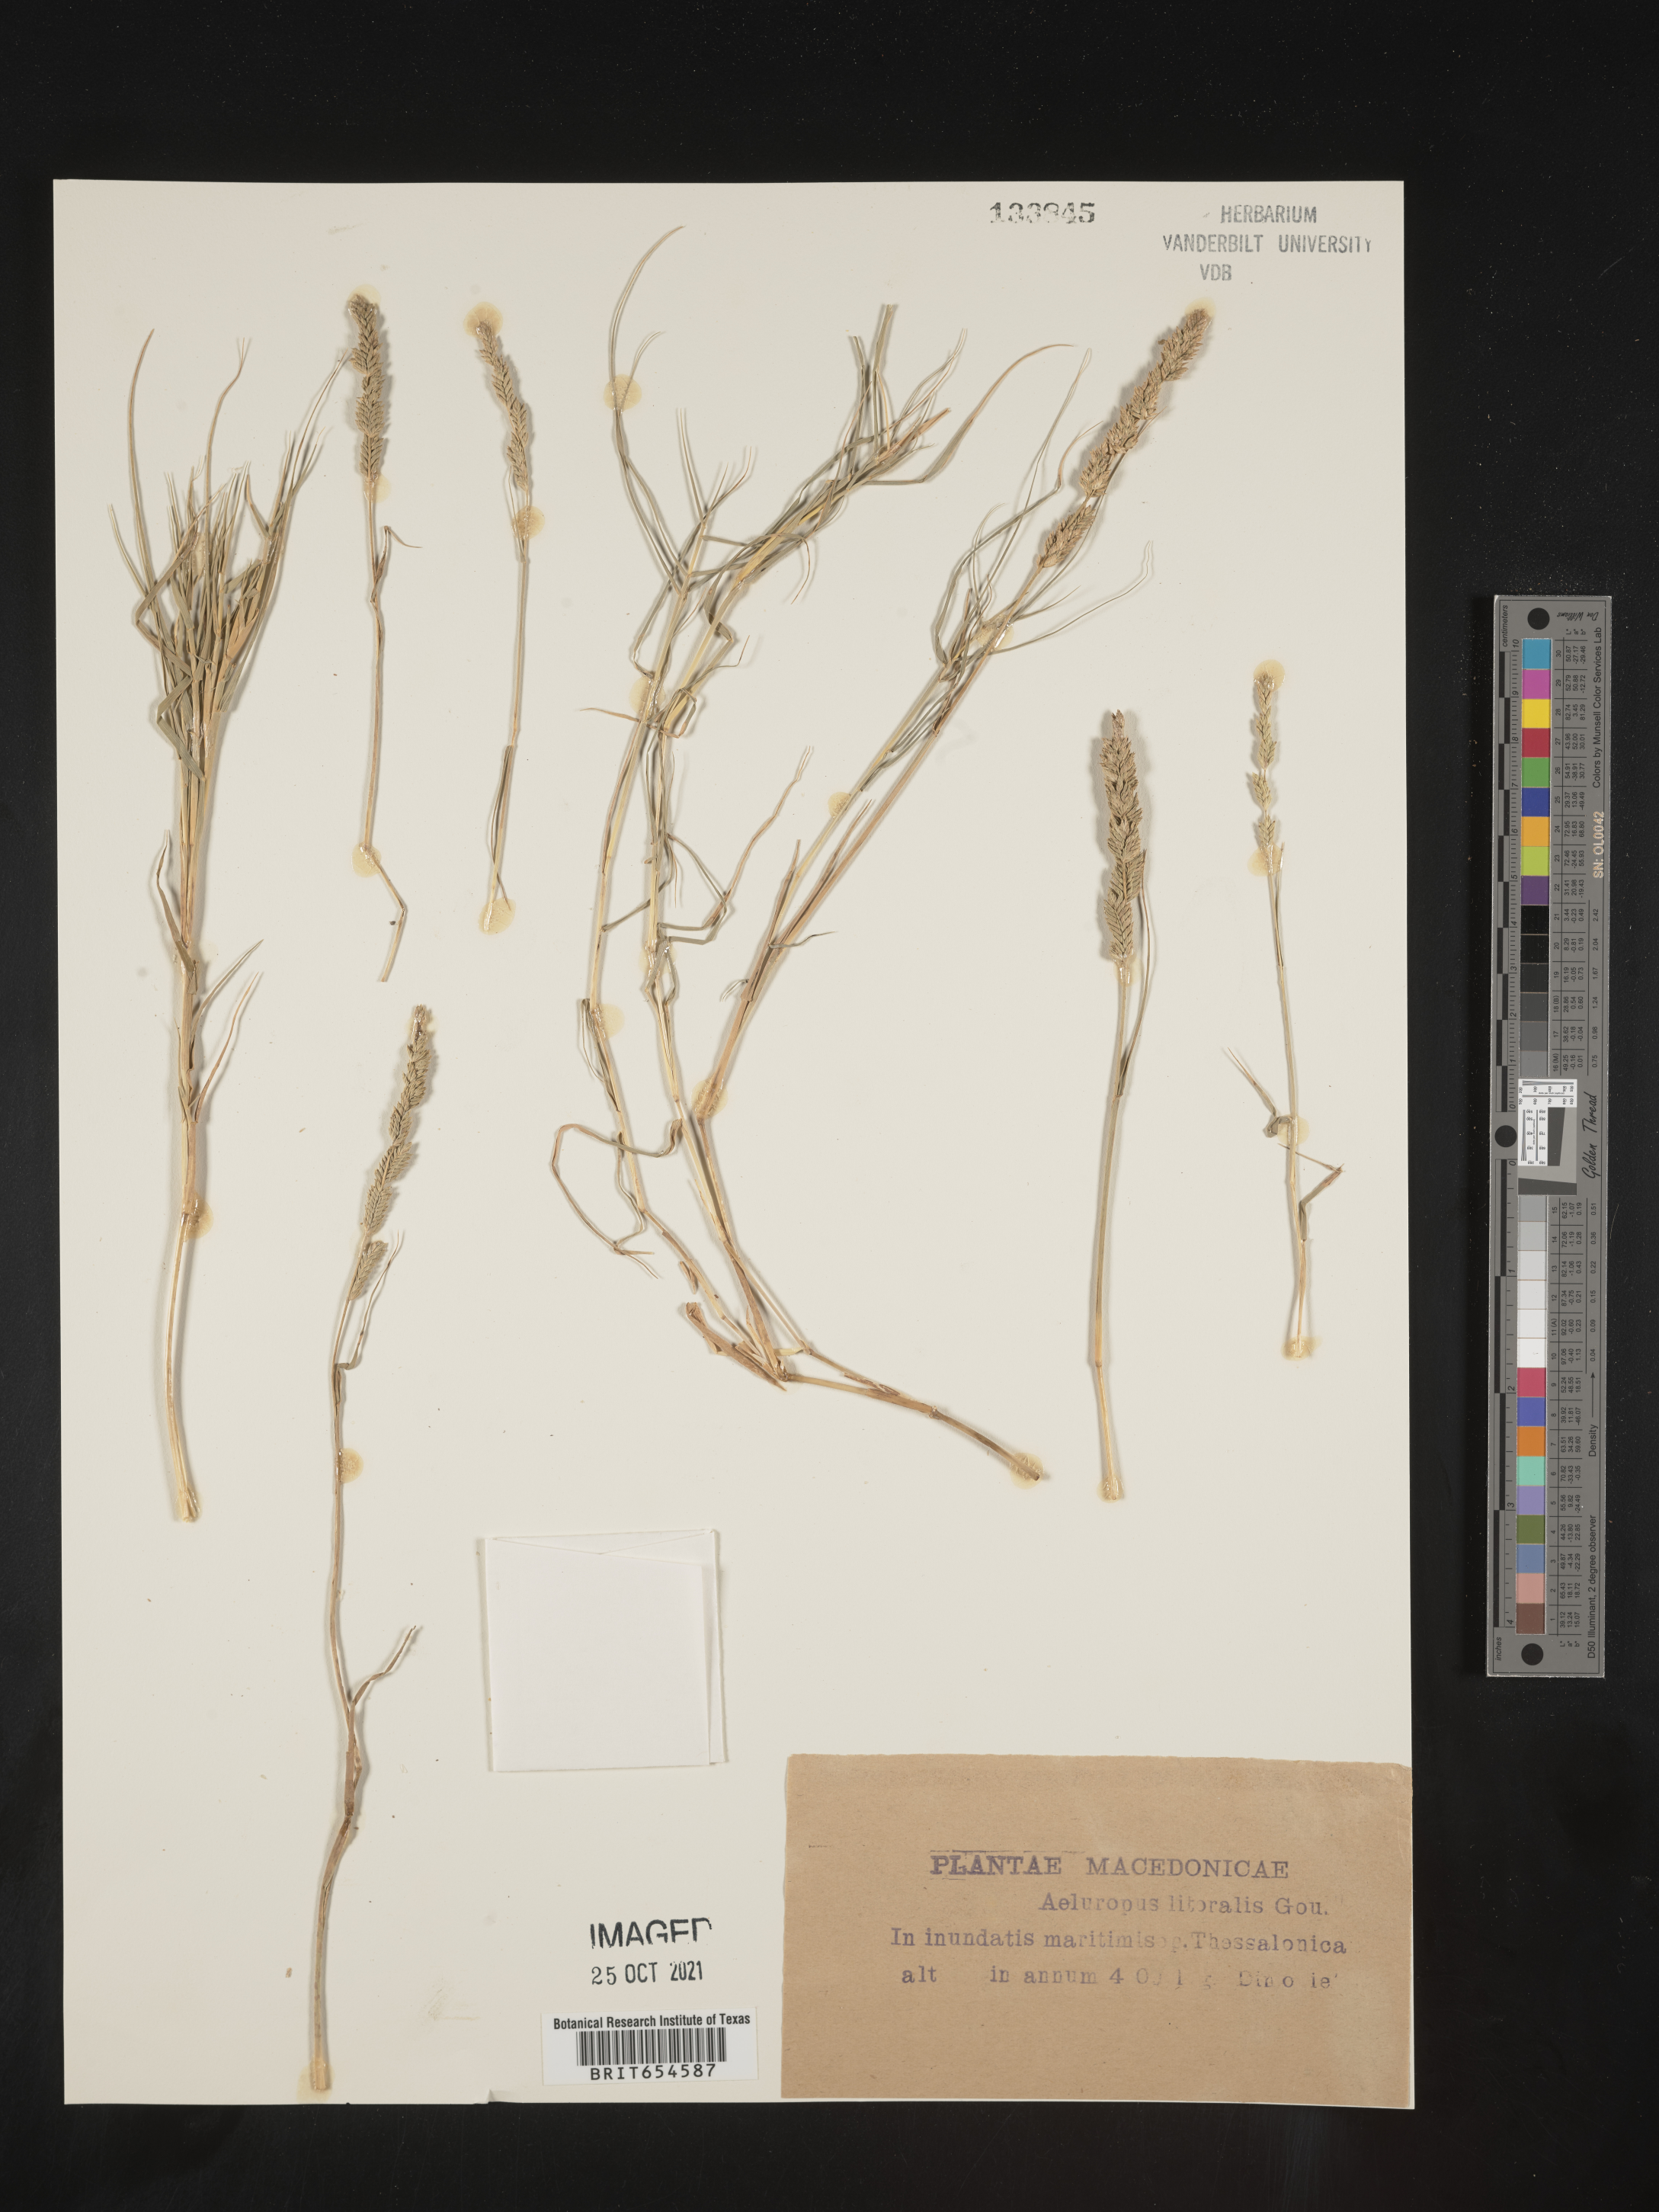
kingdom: Plantae
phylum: Tracheophyta
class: Liliopsida
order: Poales
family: Poaceae
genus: Aeluropus
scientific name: Aeluropus
